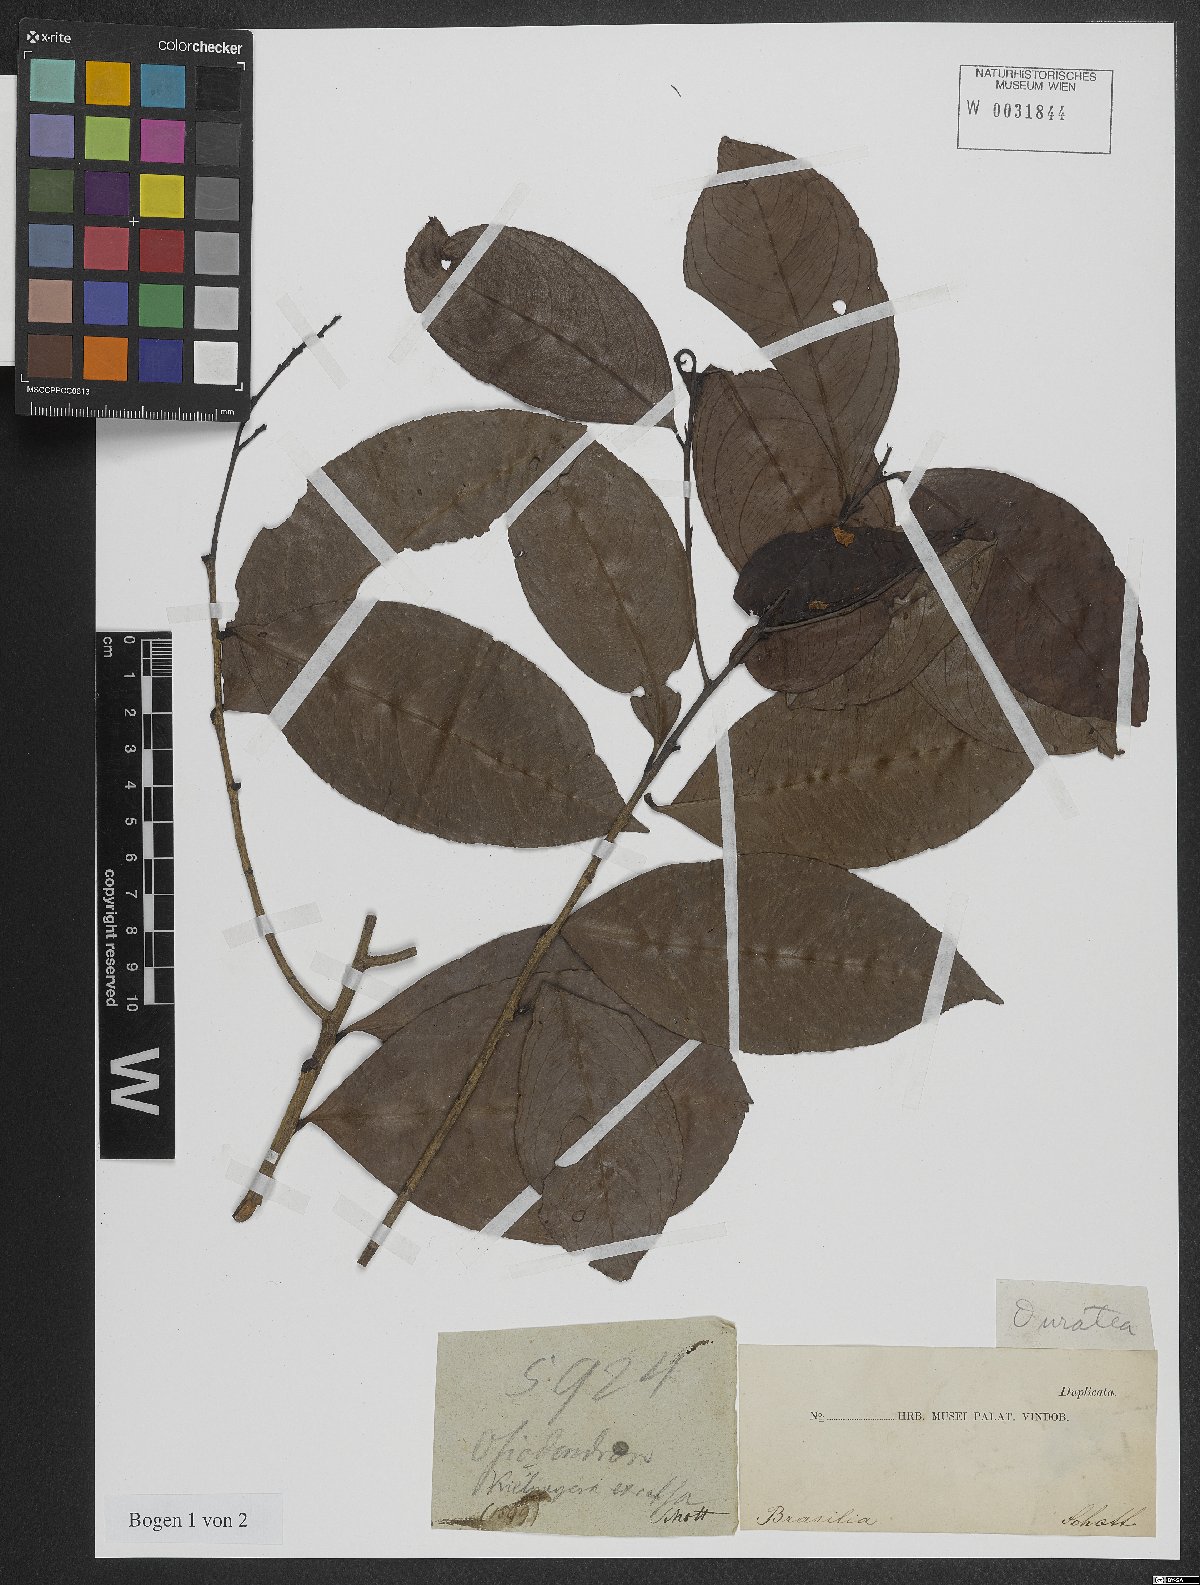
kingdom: Plantae
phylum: Tracheophyta
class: Magnoliopsida
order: Malpighiales
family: Ochnaceae
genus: Ouratea
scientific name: Ouratea
